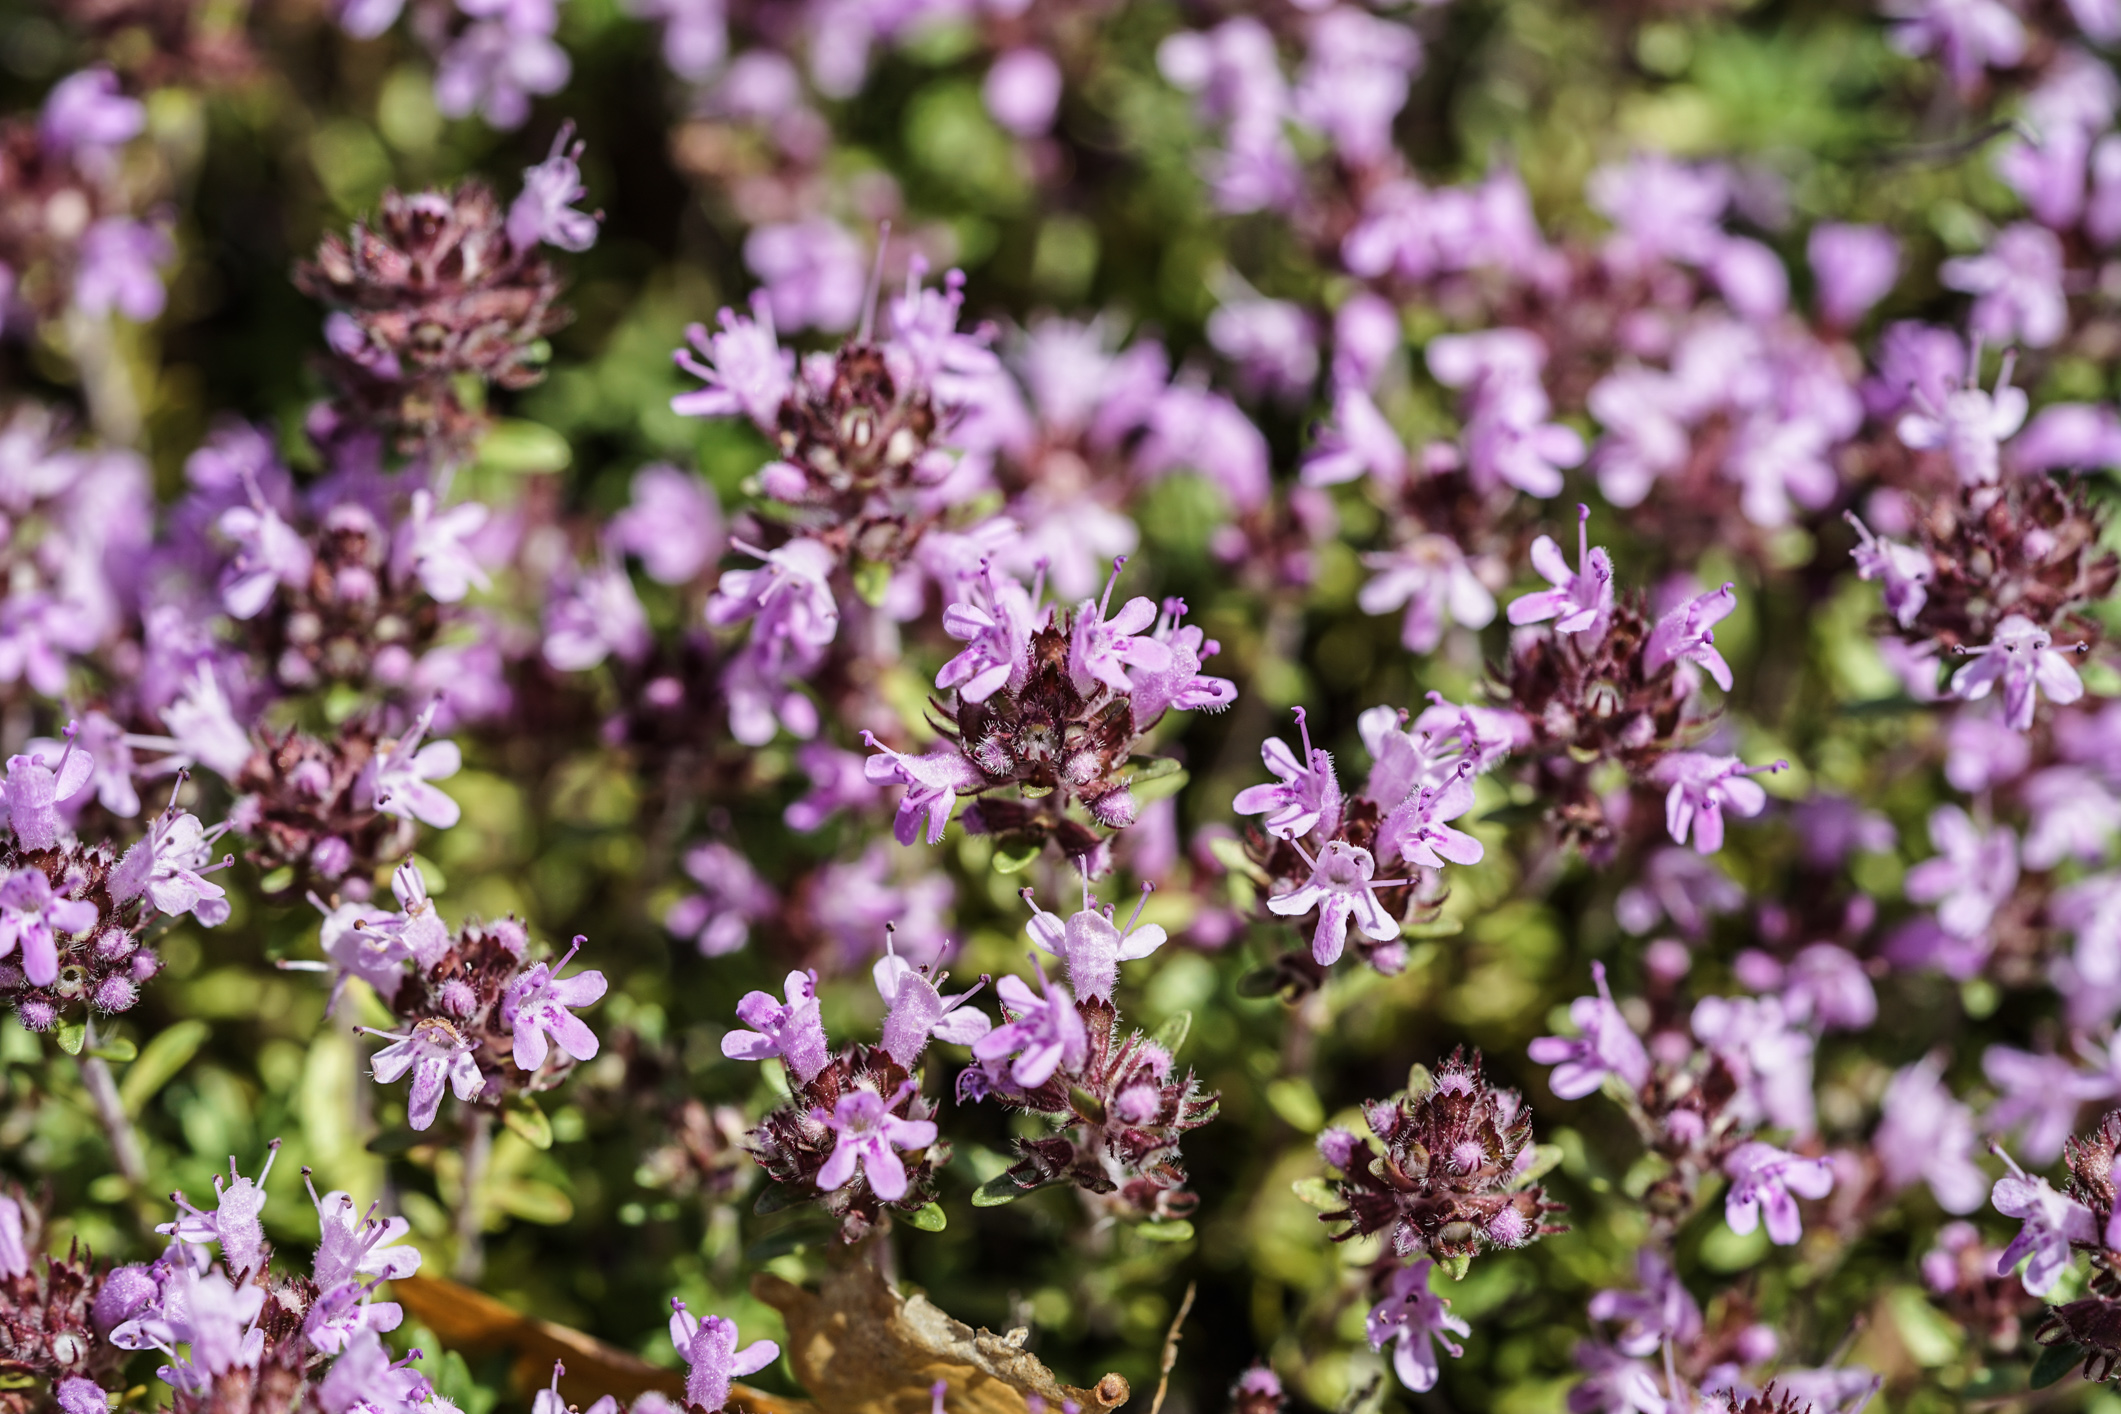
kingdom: Plantae
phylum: Tracheophyta
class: Magnoliopsida
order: Lamiales
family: Lamiaceae
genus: Thymus
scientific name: Thymus serpyllum
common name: Breckland thyme
